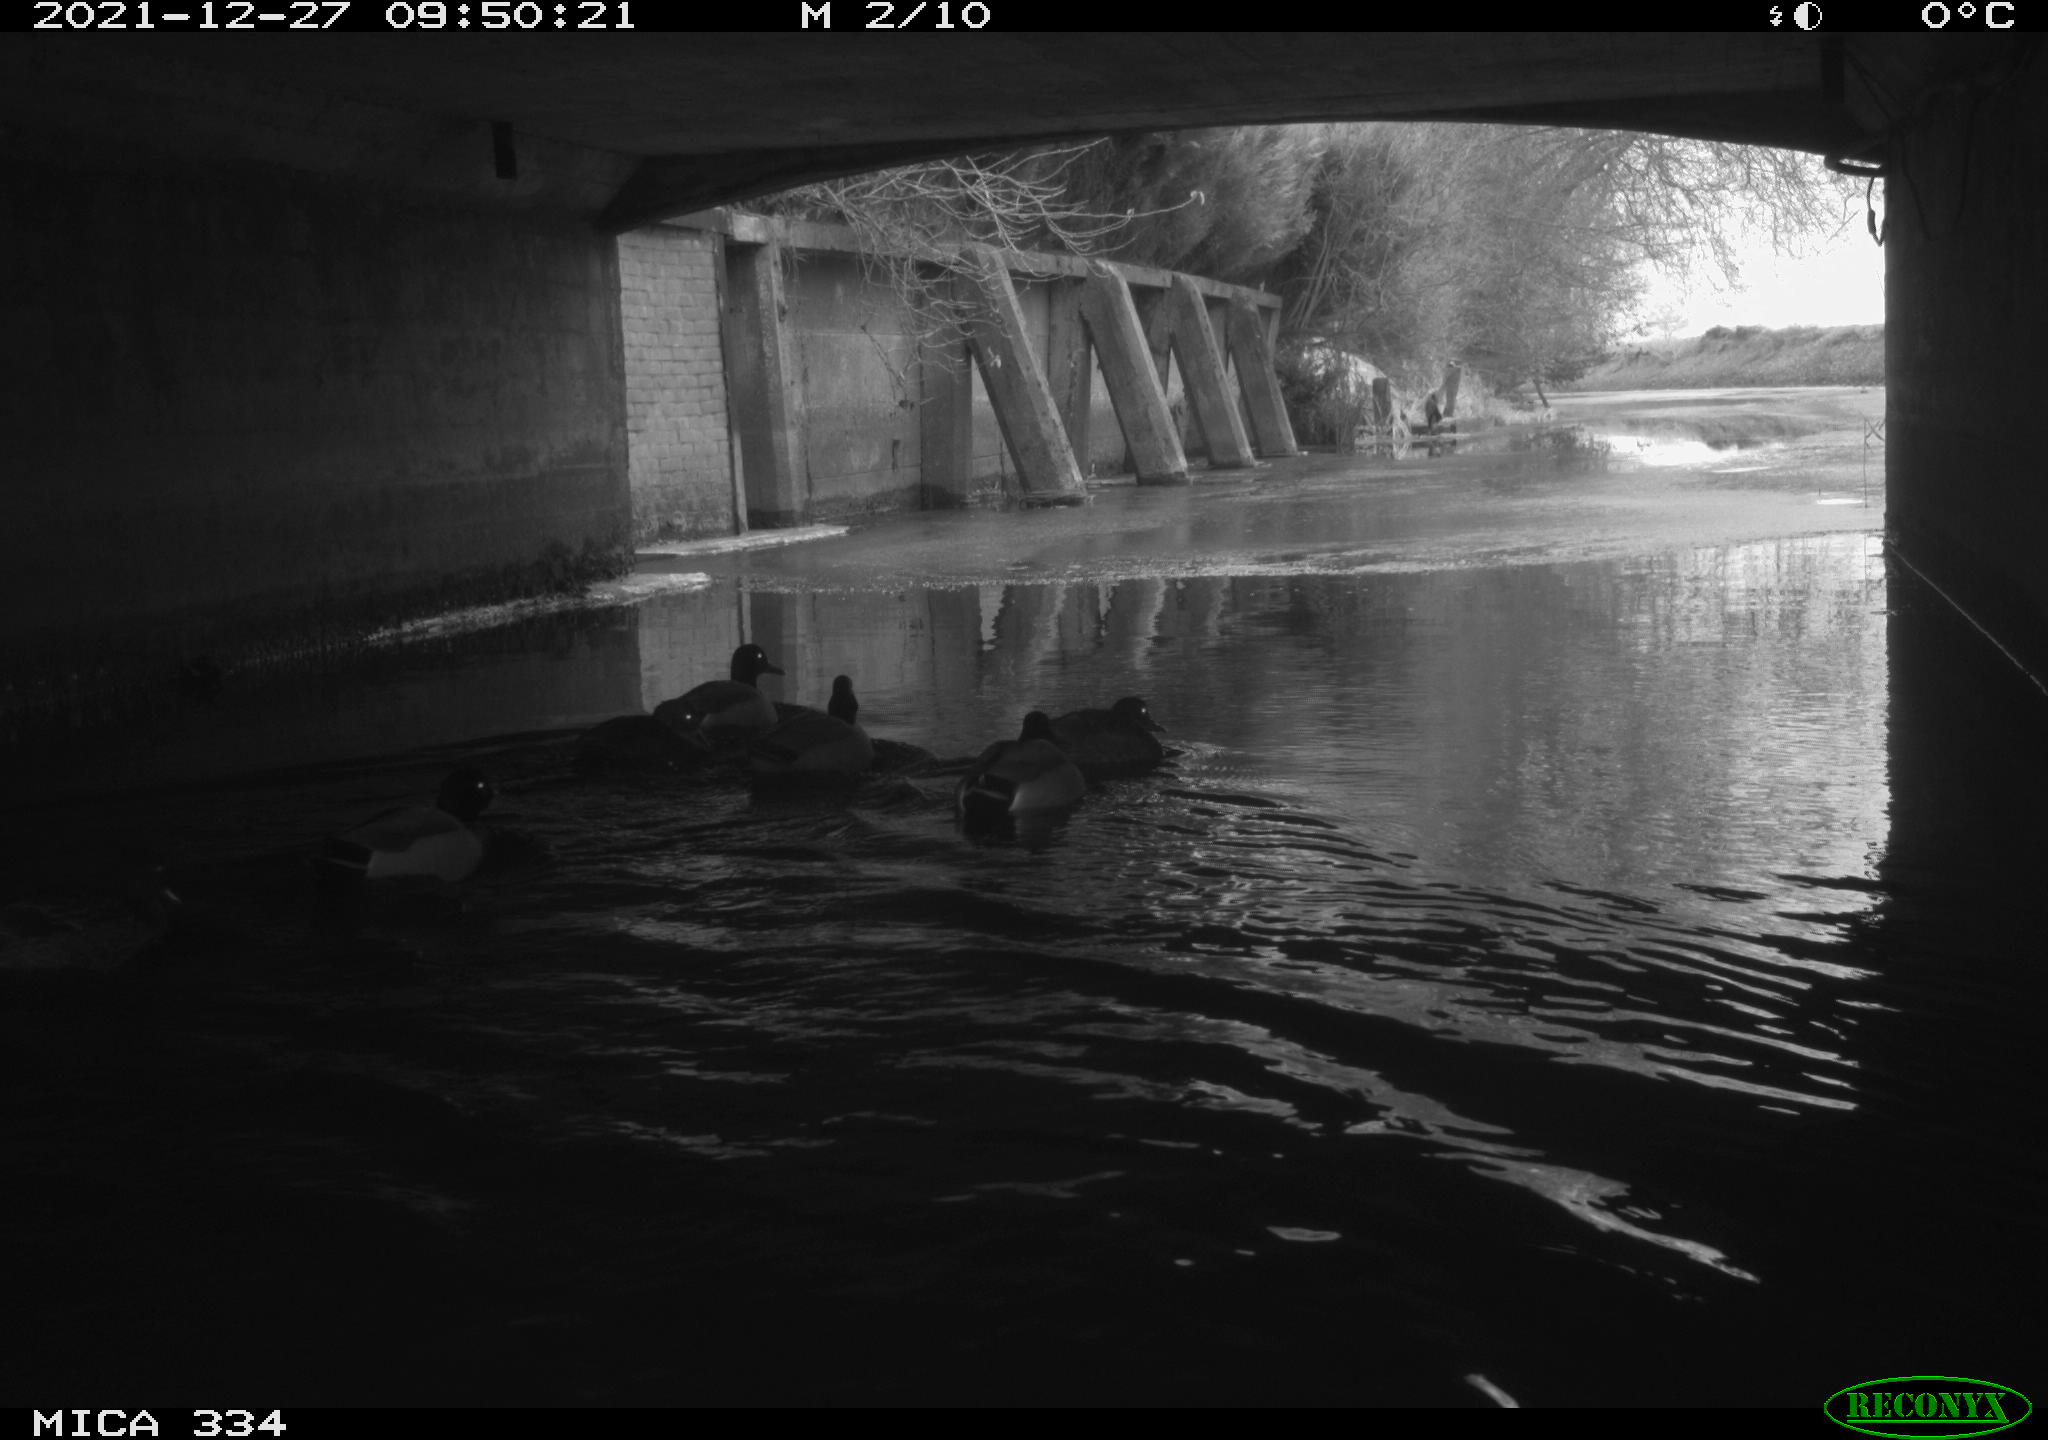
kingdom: Animalia
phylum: Chordata
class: Aves
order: Anseriformes
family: Anatidae
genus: Anas
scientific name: Anas platyrhynchos
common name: Mallard
